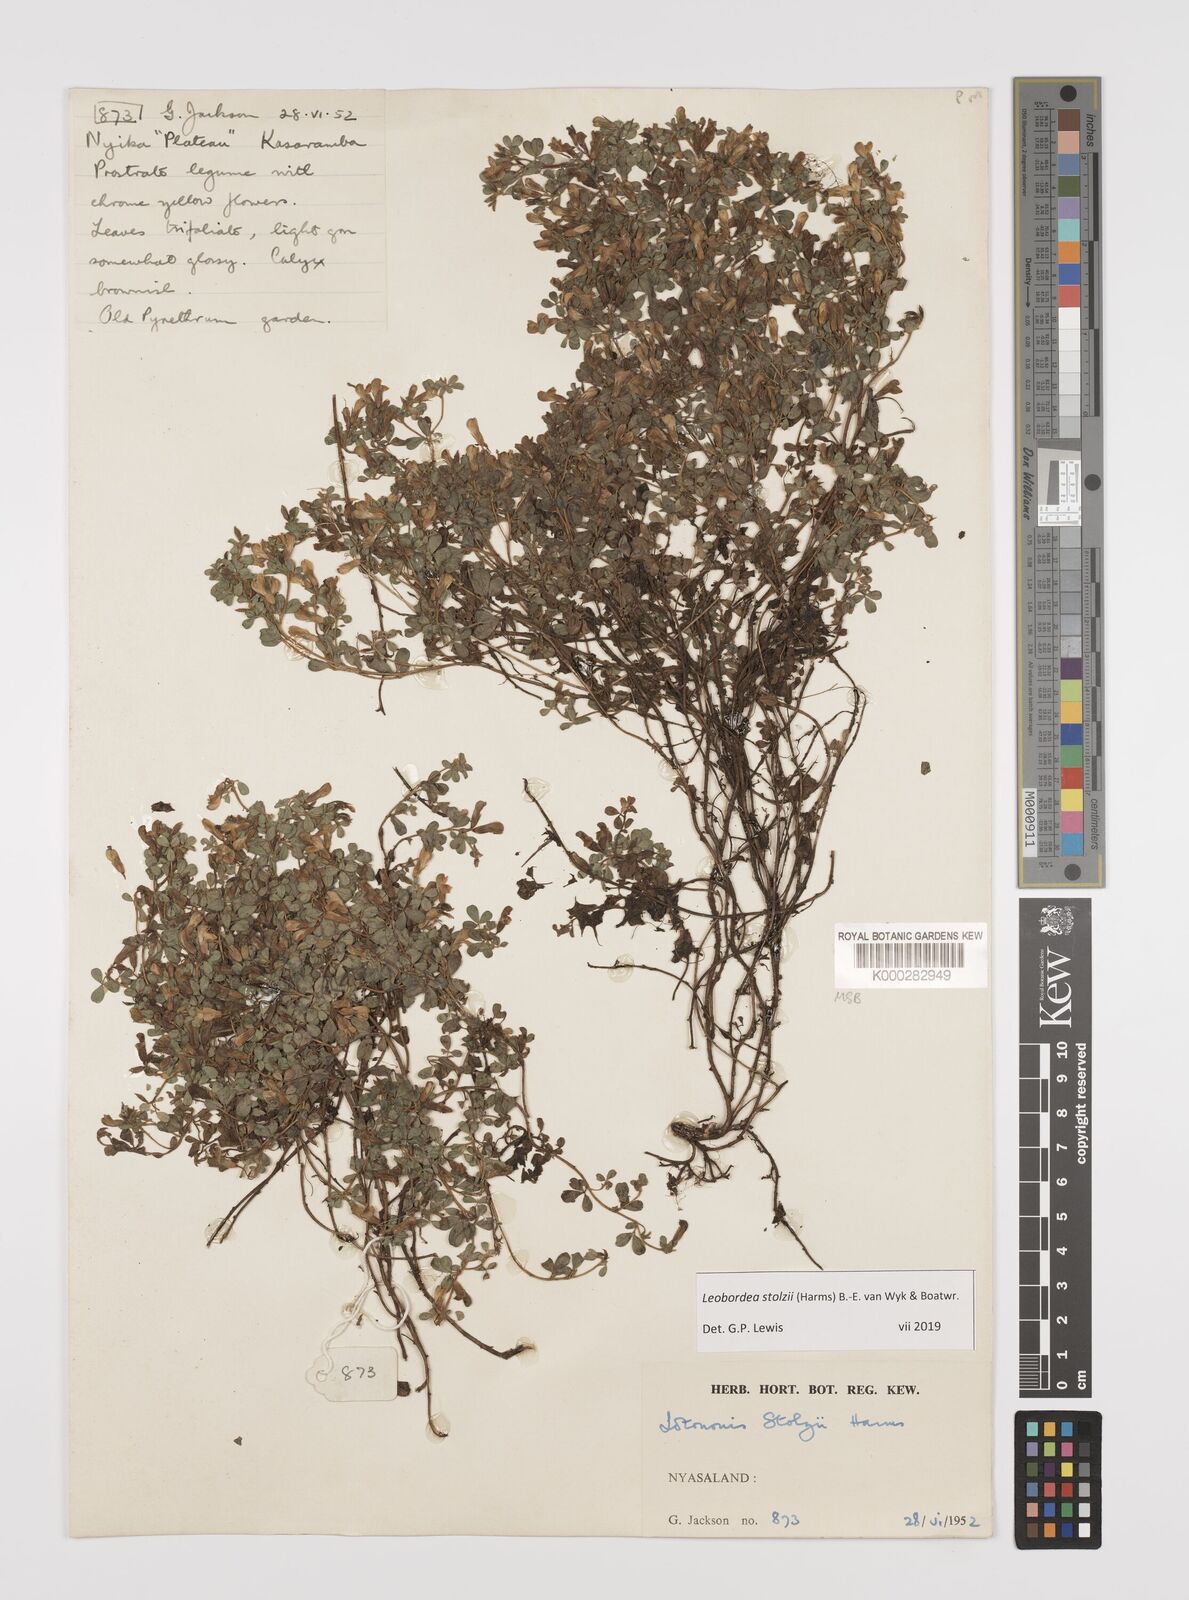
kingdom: Plantae
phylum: Tracheophyta
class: Magnoliopsida
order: Fabales
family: Fabaceae
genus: Leobordea
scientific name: Leobordea stolzii
